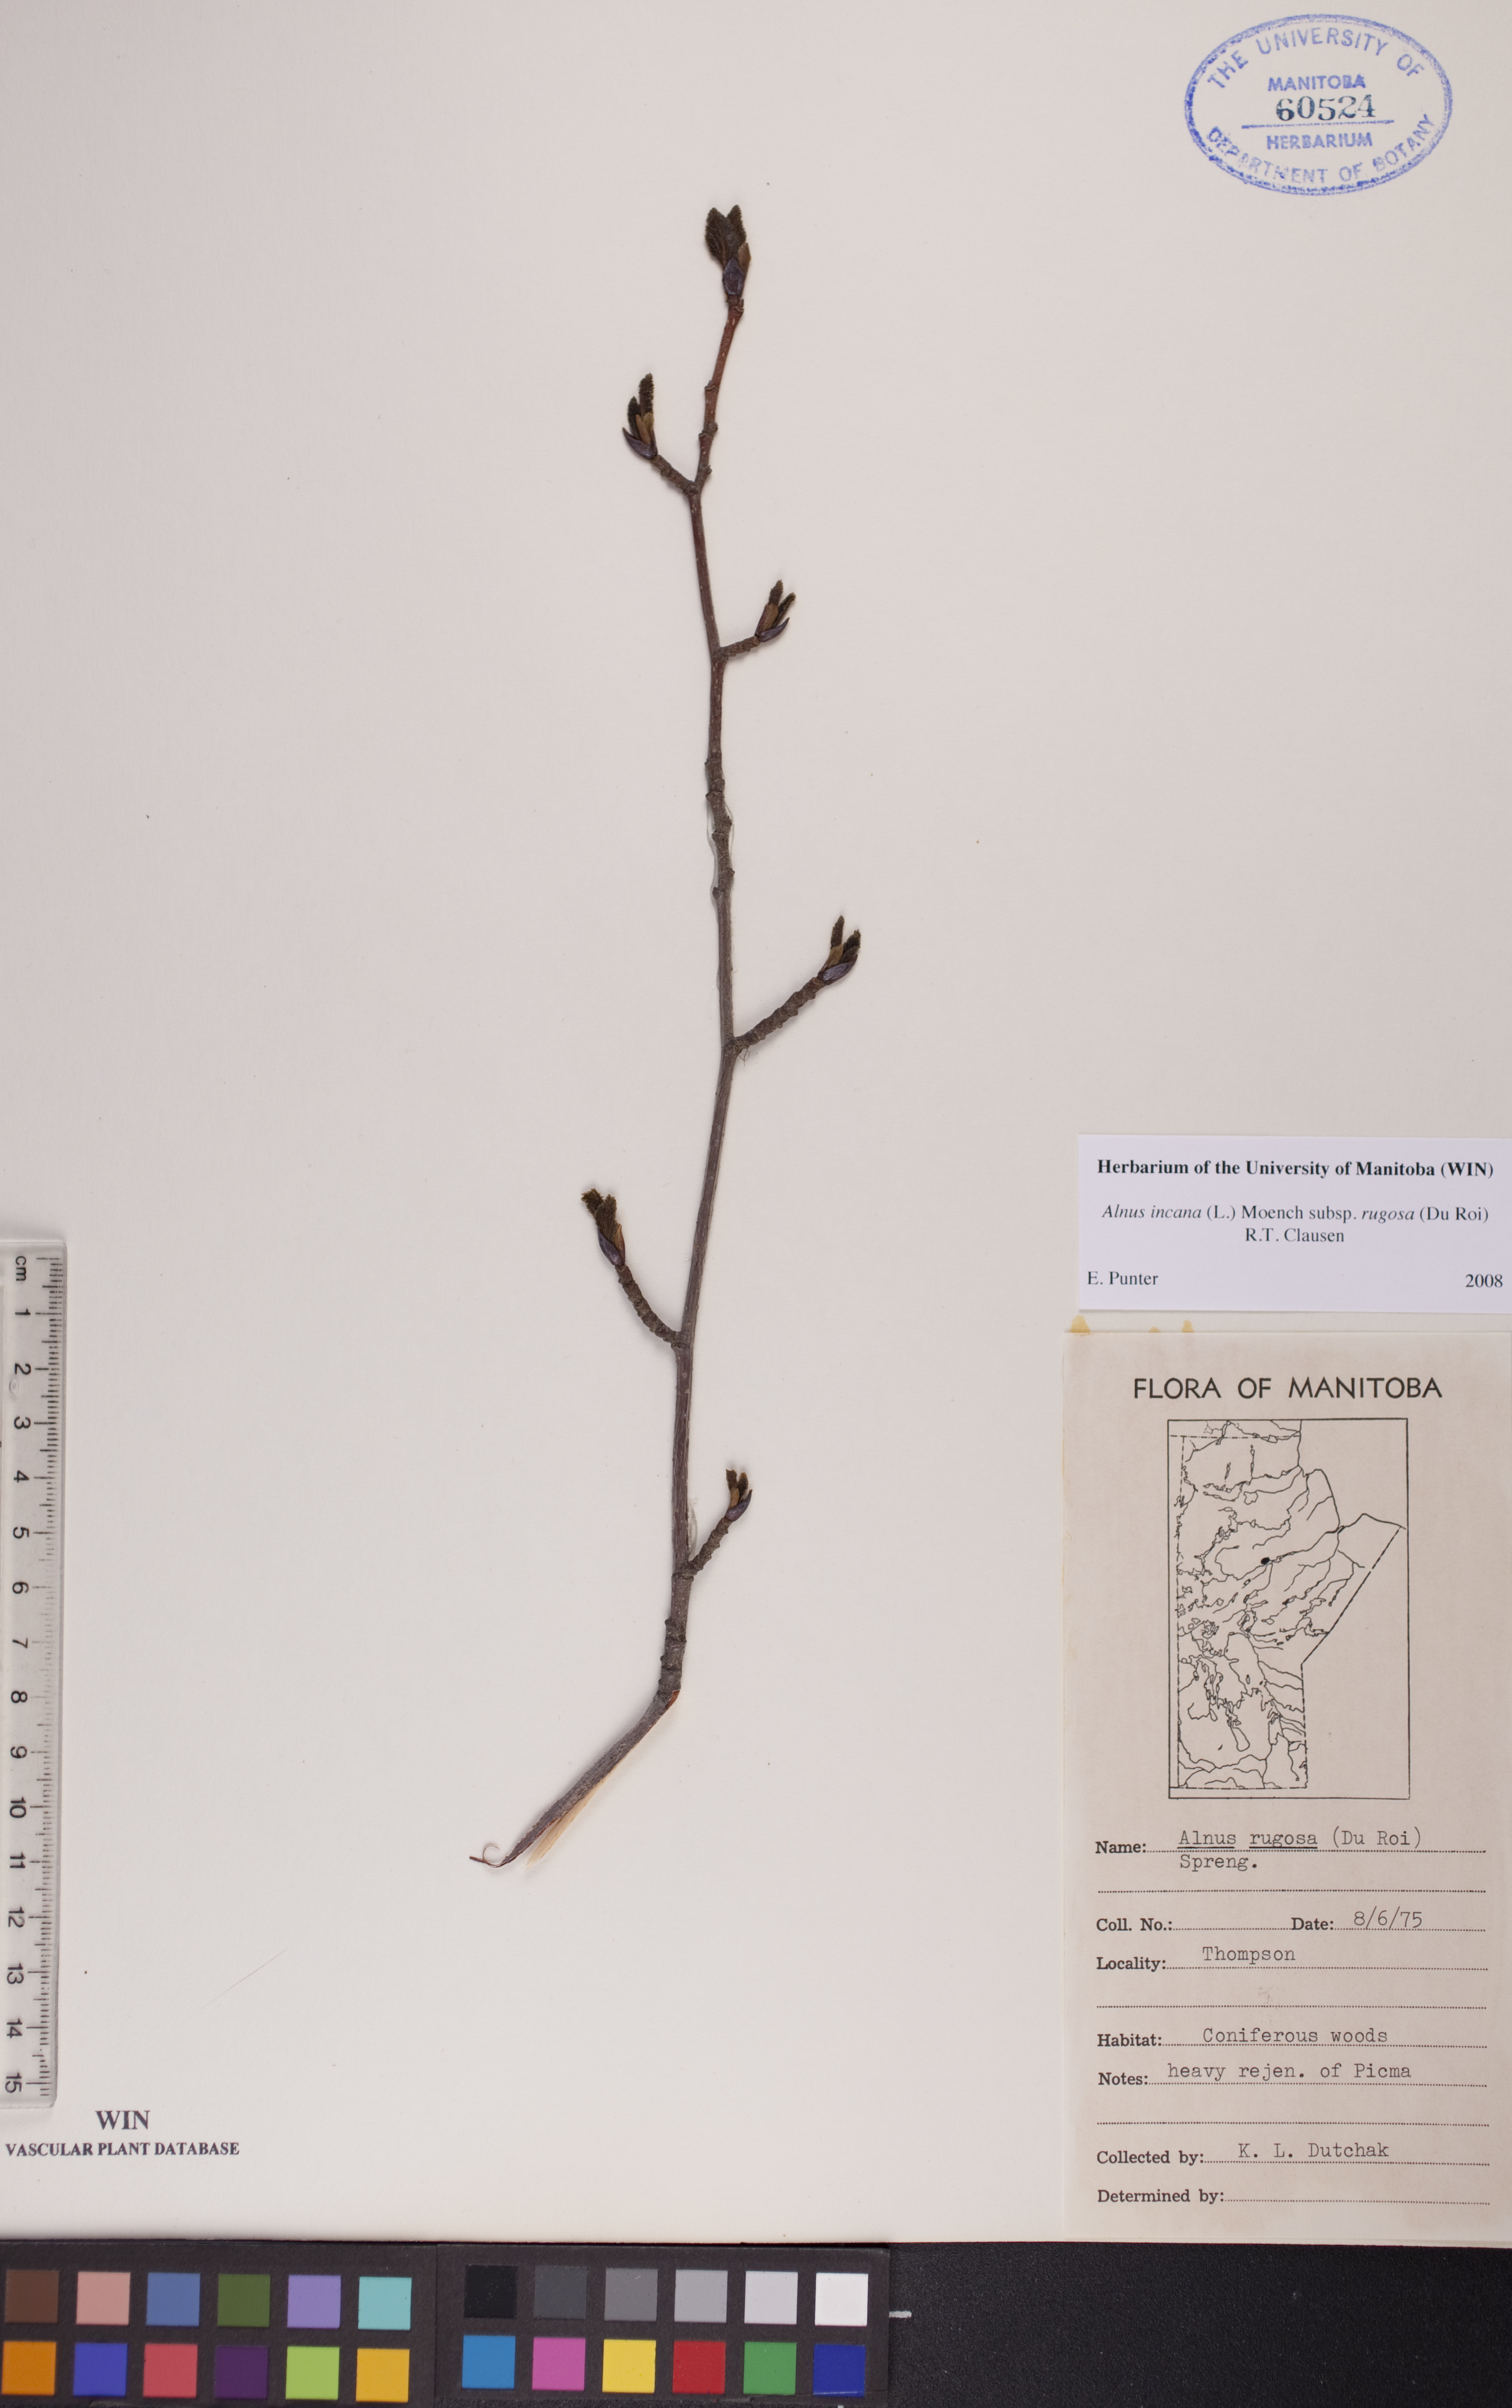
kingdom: Plantae
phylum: Tracheophyta
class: Magnoliopsida
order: Fagales
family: Betulaceae
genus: Alnus
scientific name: Alnus incana
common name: Grey alder
